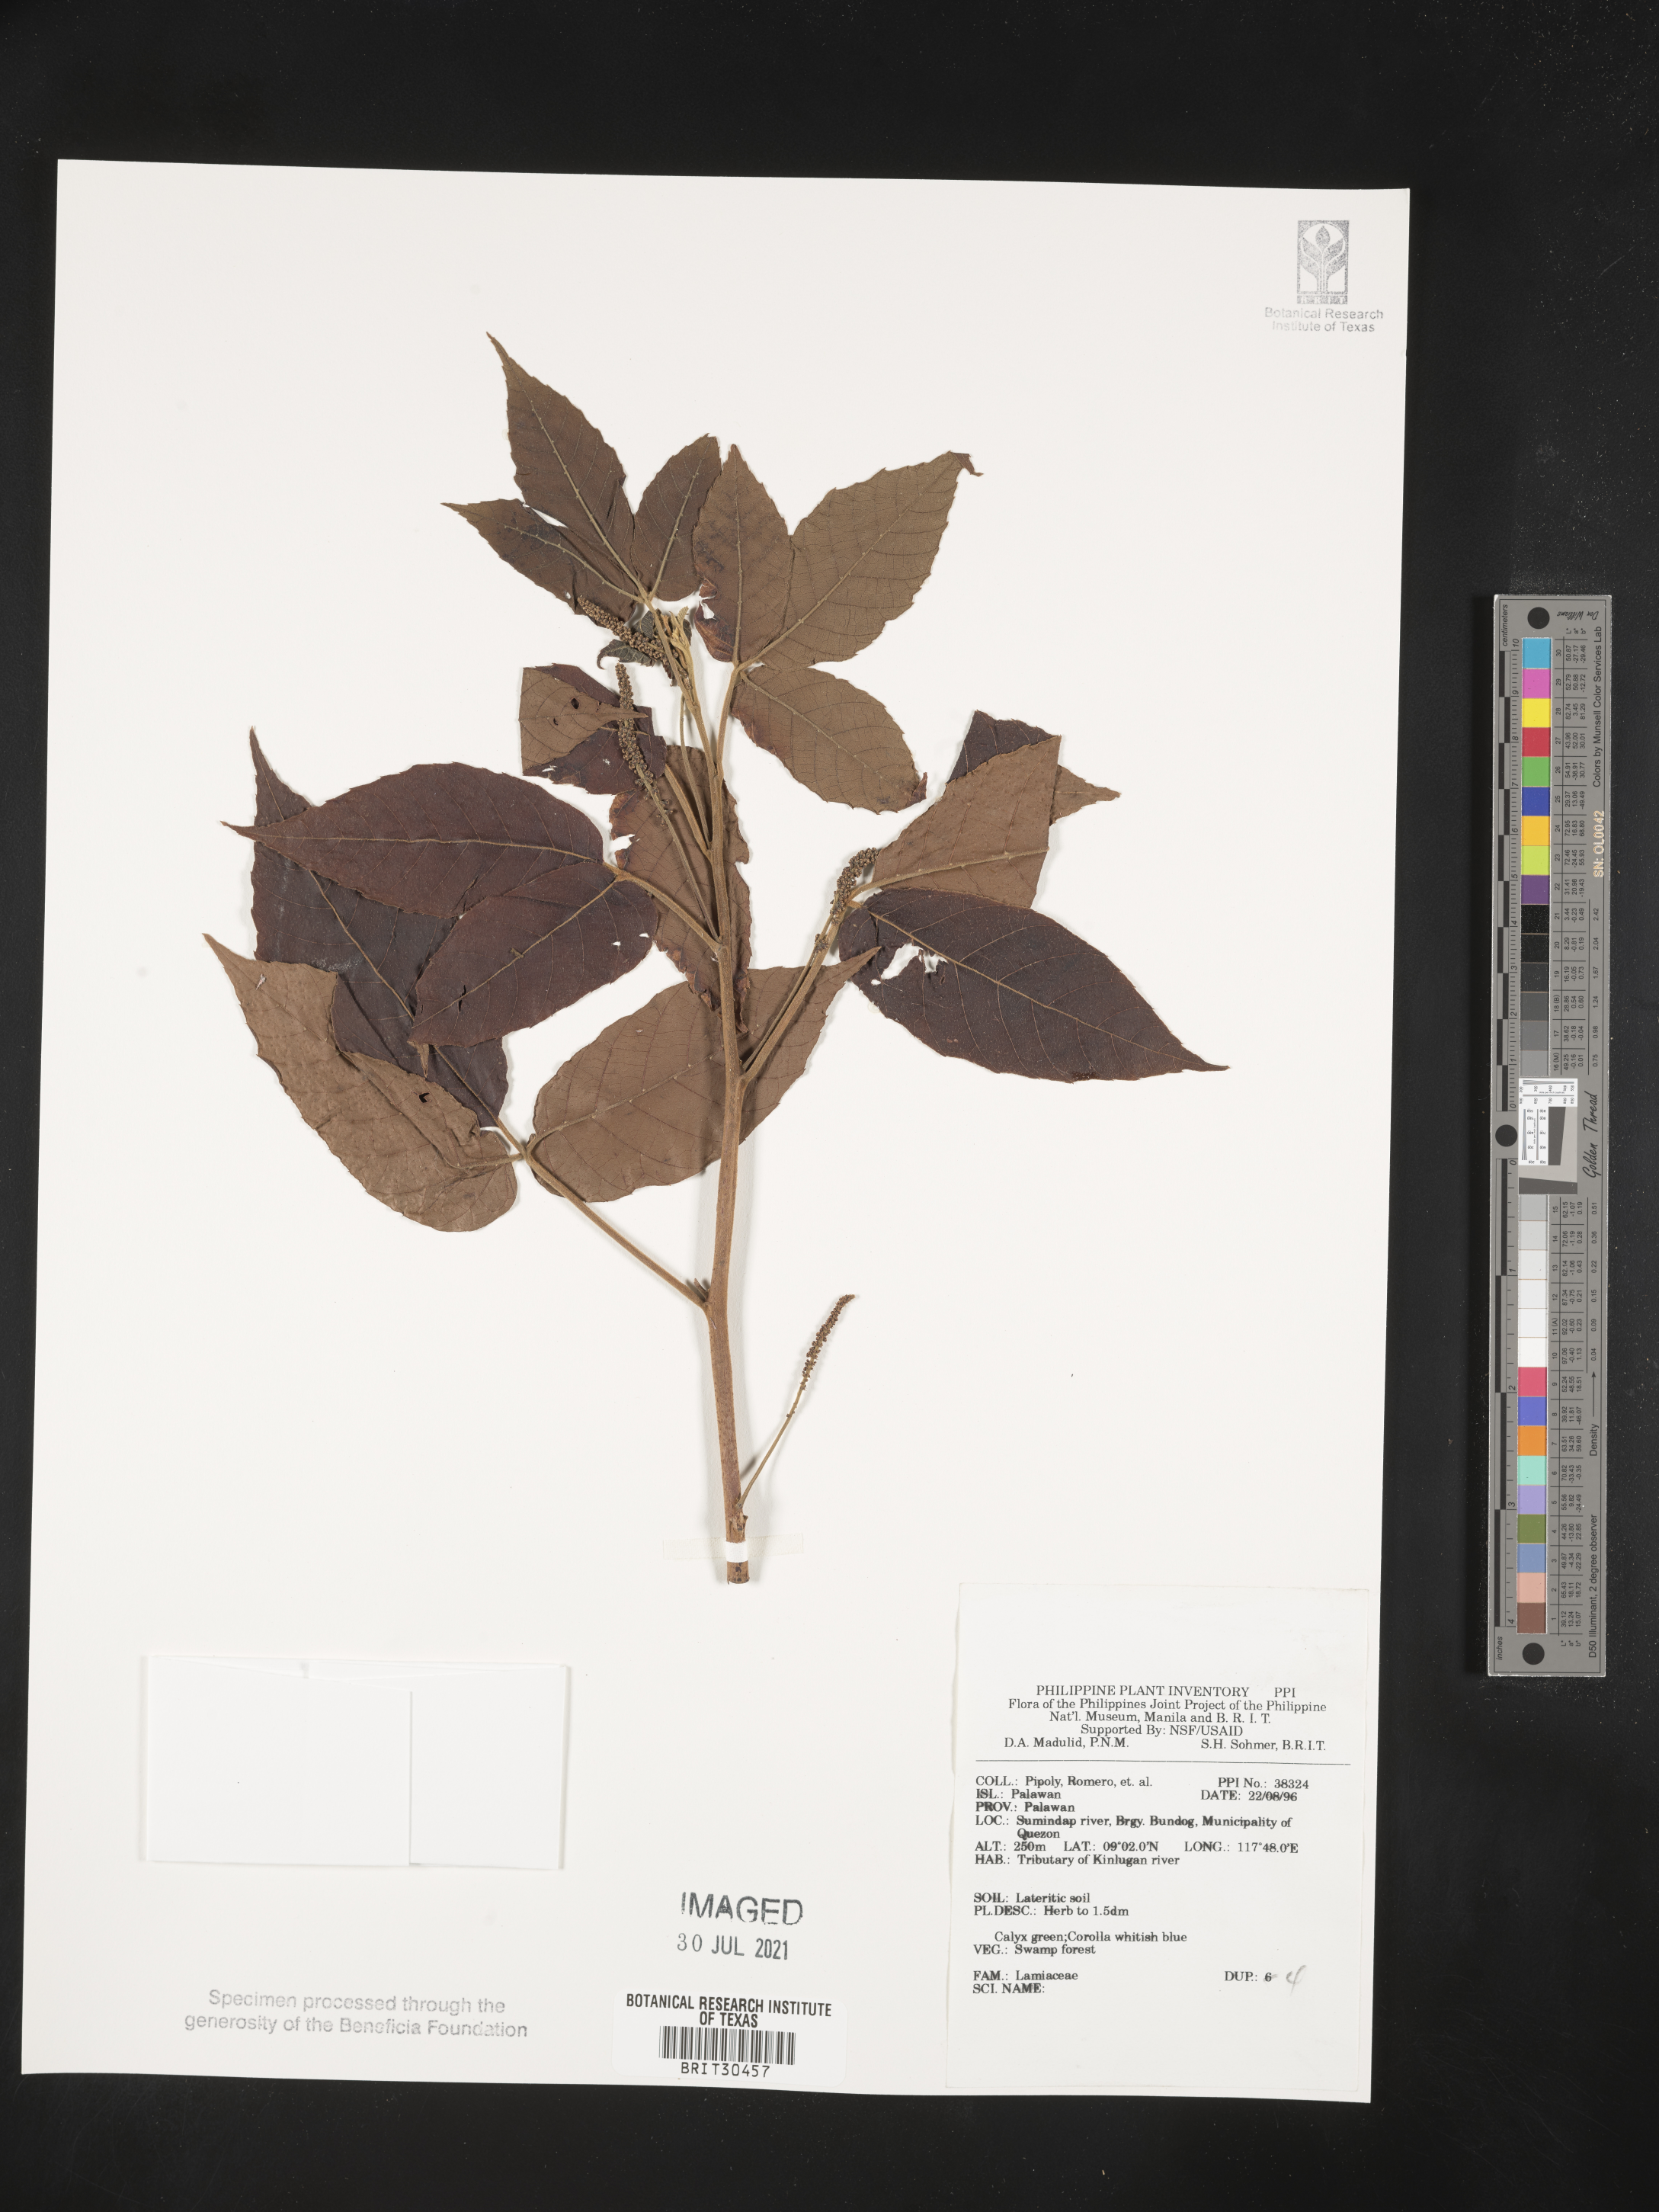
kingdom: Plantae
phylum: Tracheophyta
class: Magnoliopsida
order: Lamiales
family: Lamiaceae
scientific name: Lamiaceae
